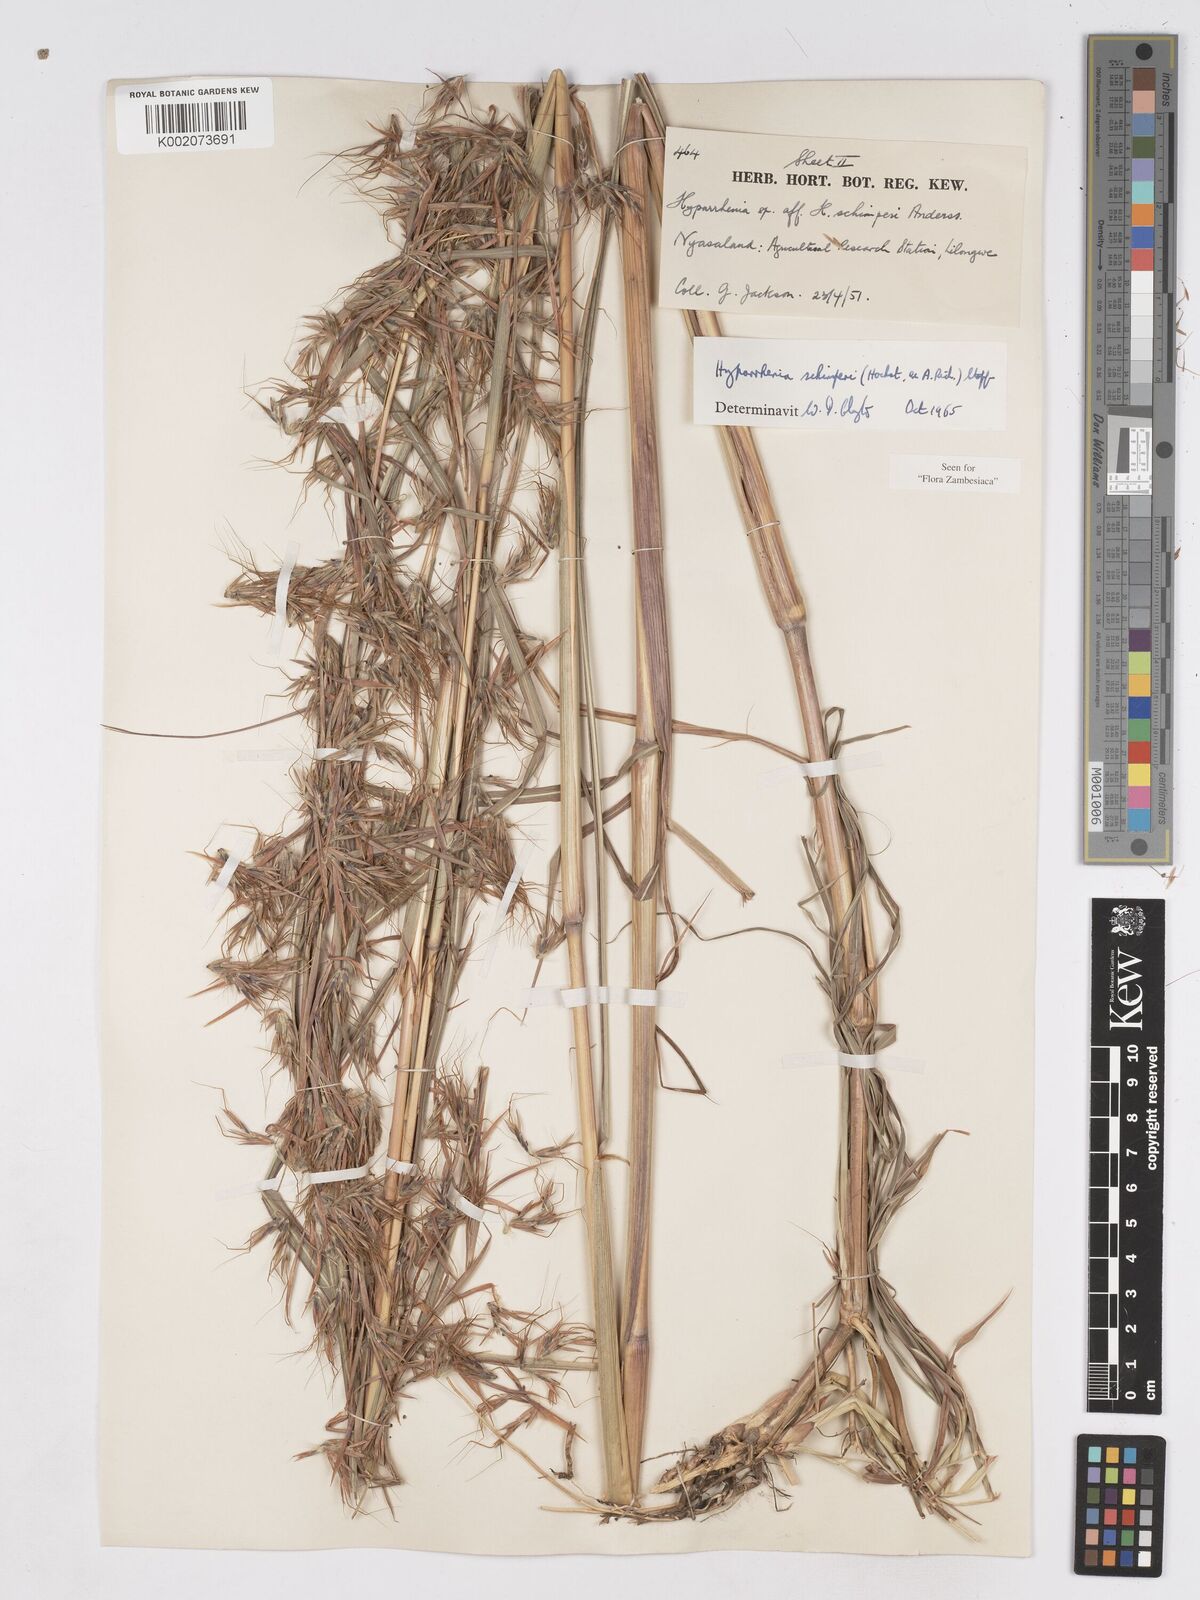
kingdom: Plantae
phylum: Tracheophyta
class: Liliopsida
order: Poales
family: Poaceae
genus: Hyparrhenia
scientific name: Hyparrhenia schimperi
